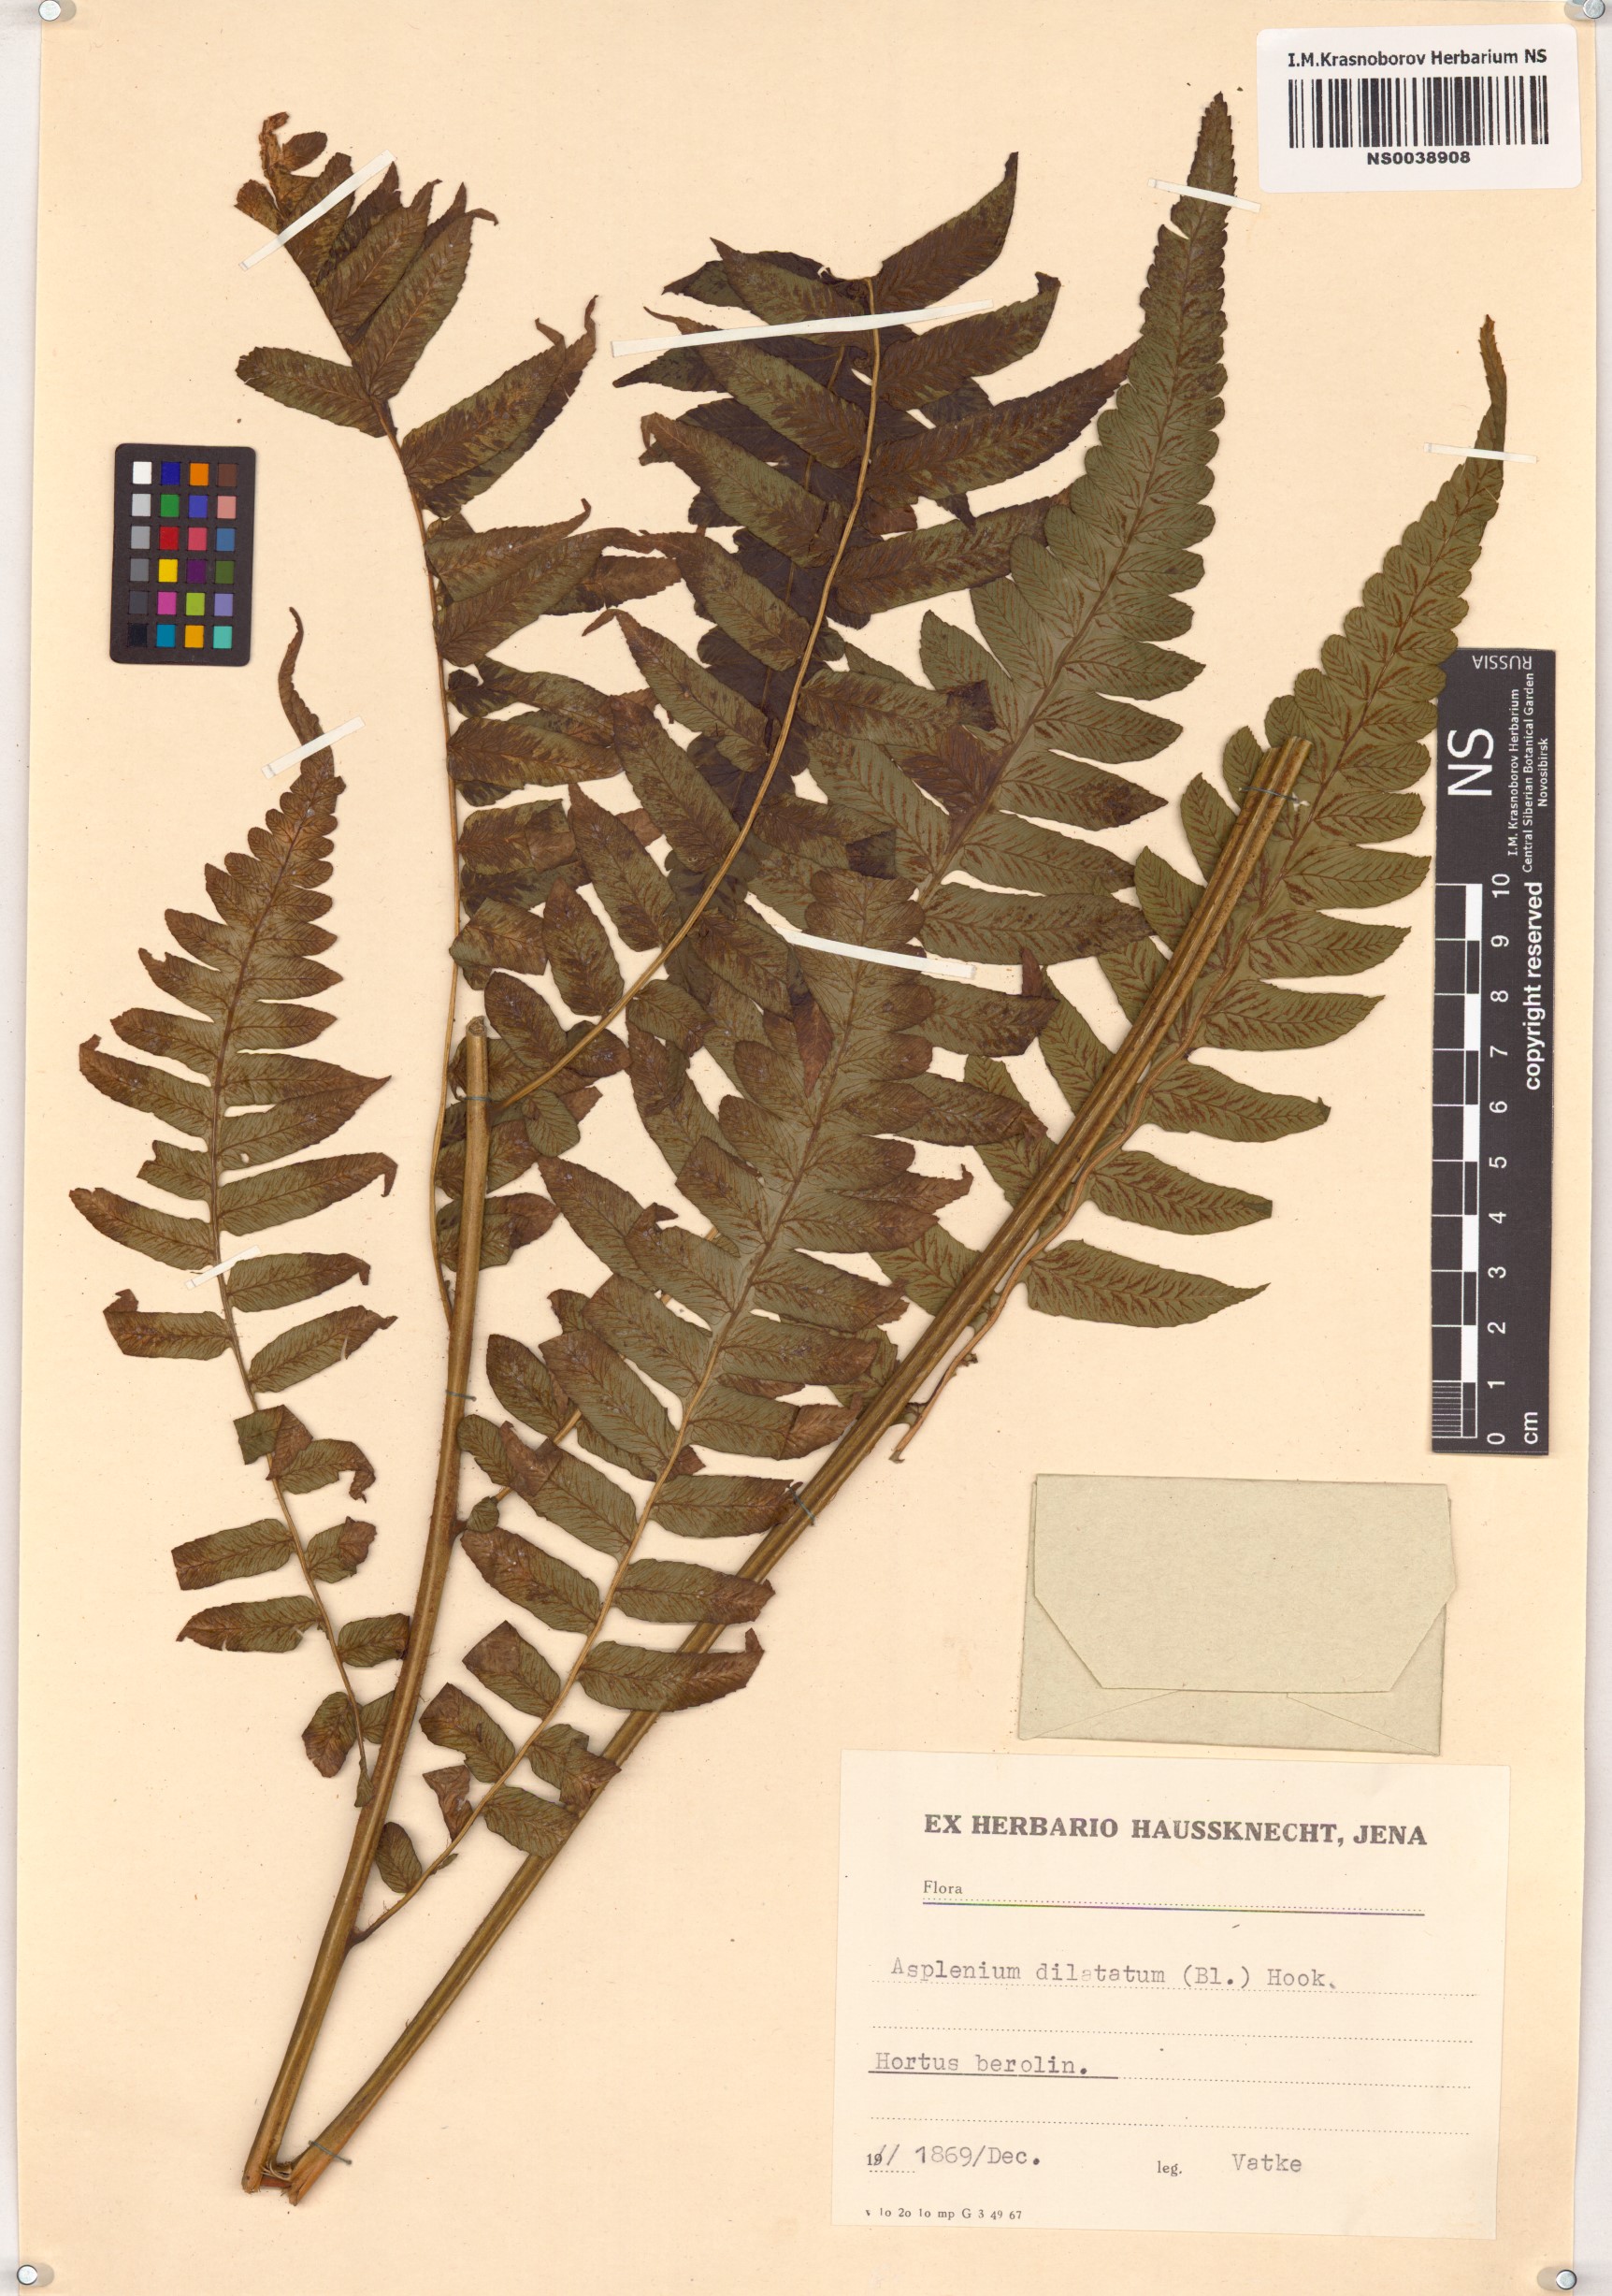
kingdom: Plantae
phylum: Tracheophyta
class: Polypodiopsida
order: Polypodiales
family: Athyriaceae
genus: Diplazium
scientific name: Diplazium dilatatum
